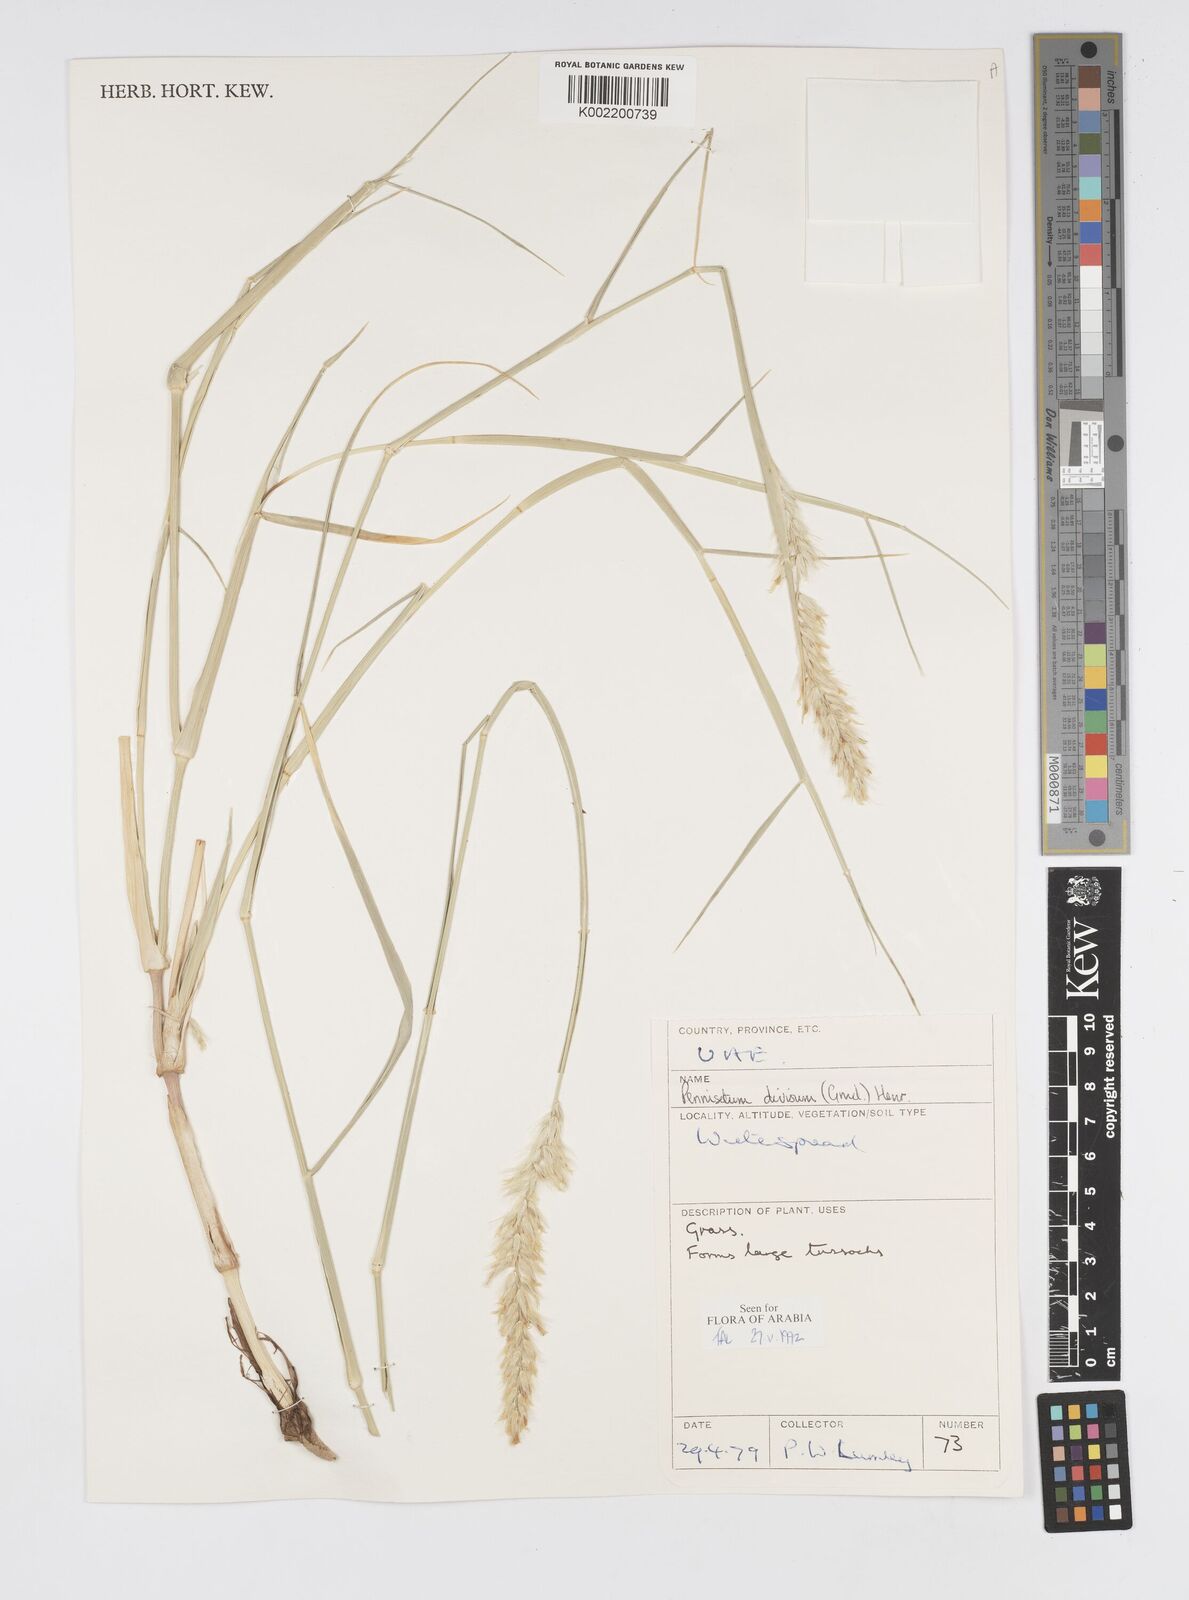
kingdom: Plantae
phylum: Tracheophyta
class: Liliopsida
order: Poales
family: Poaceae
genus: Cenchrus
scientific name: Cenchrus divisus
